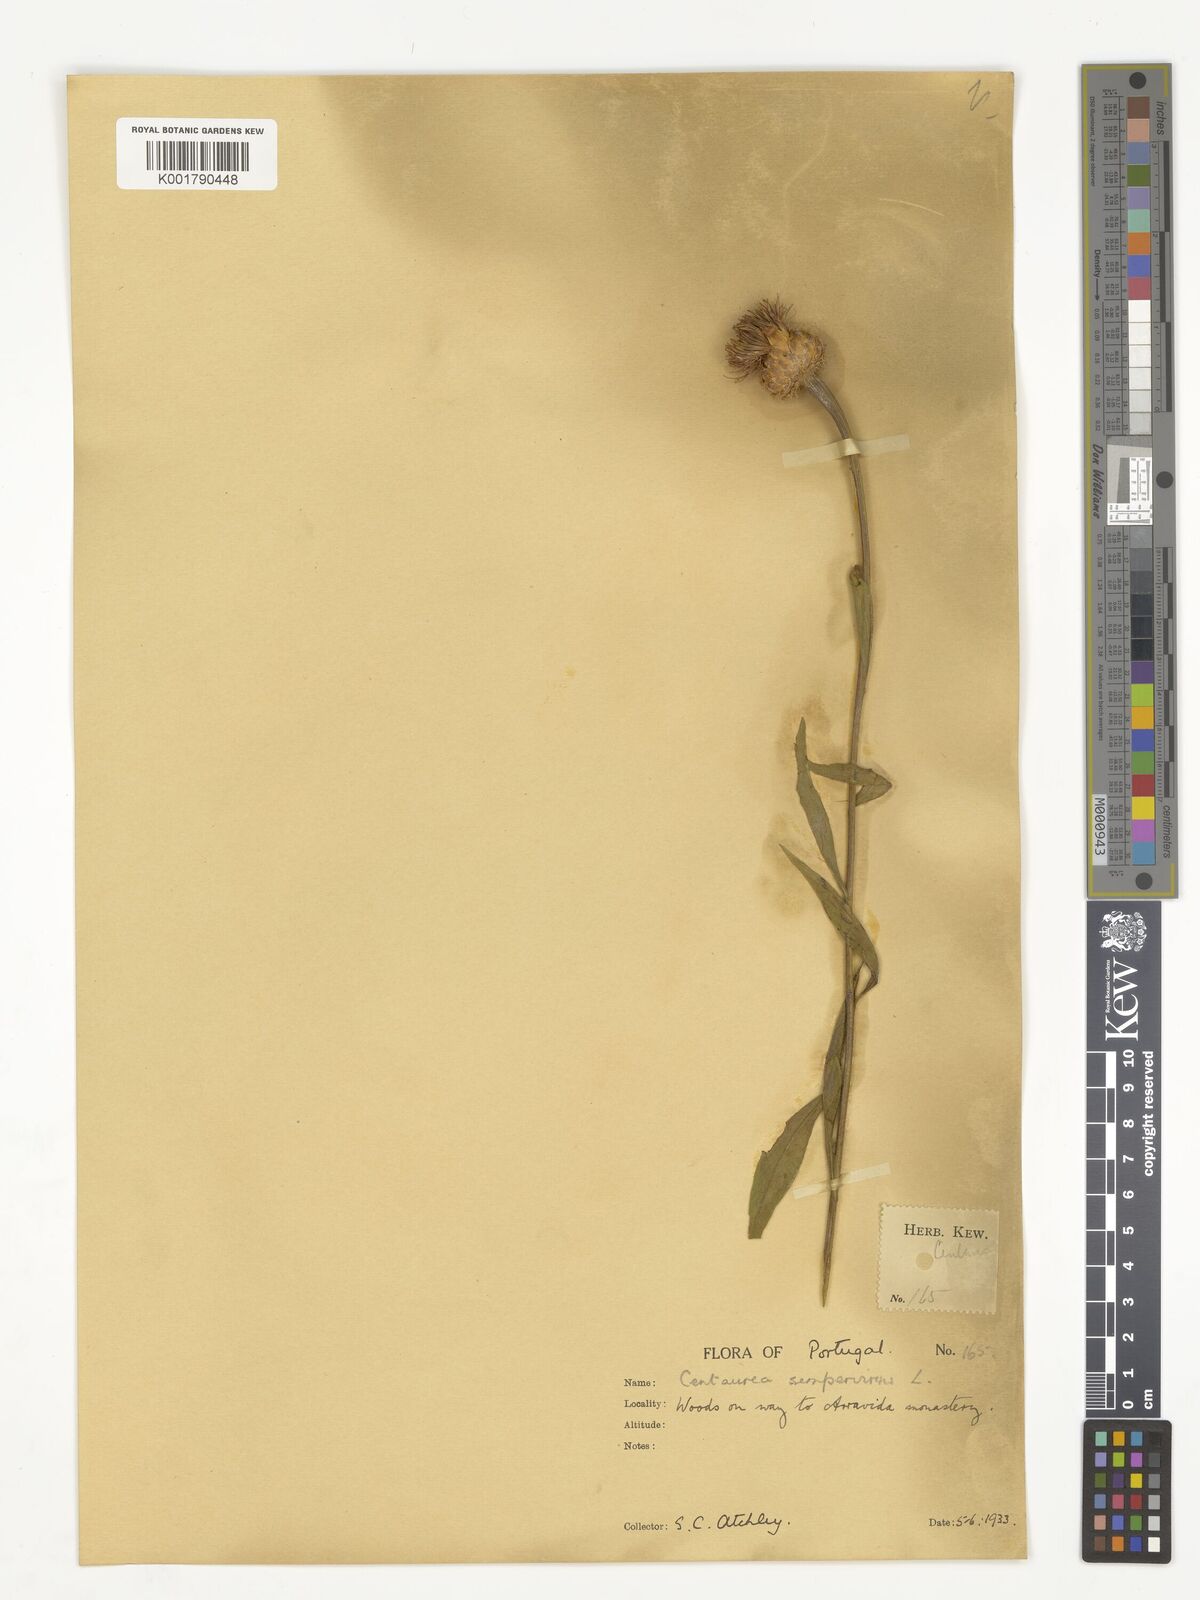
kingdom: Plantae
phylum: Tracheophyta
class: Magnoliopsida
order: Asterales
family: Asteraceae
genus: Cheirolophus
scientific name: Cheirolophus sempervirens
